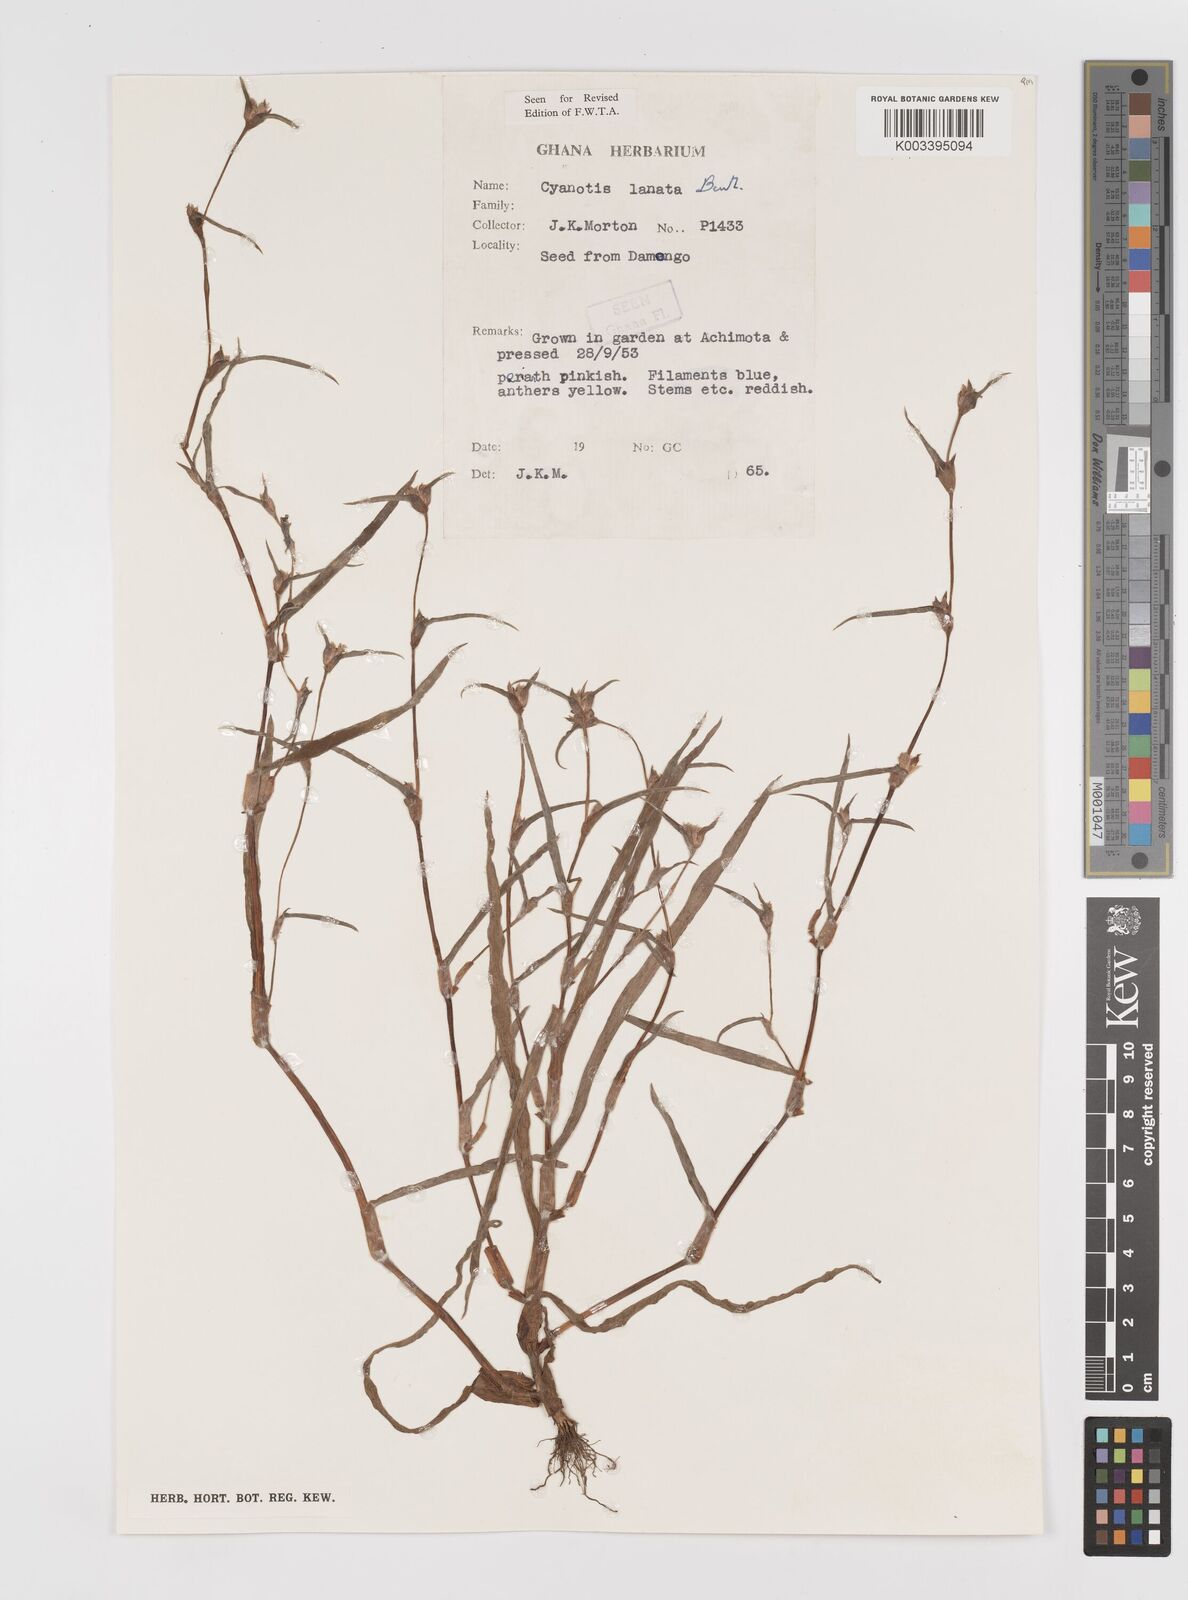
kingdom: Plantae
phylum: Tracheophyta
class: Liliopsida
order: Commelinales
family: Commelinaceae
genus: Cyanotis
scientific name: Cyanotis lanata
